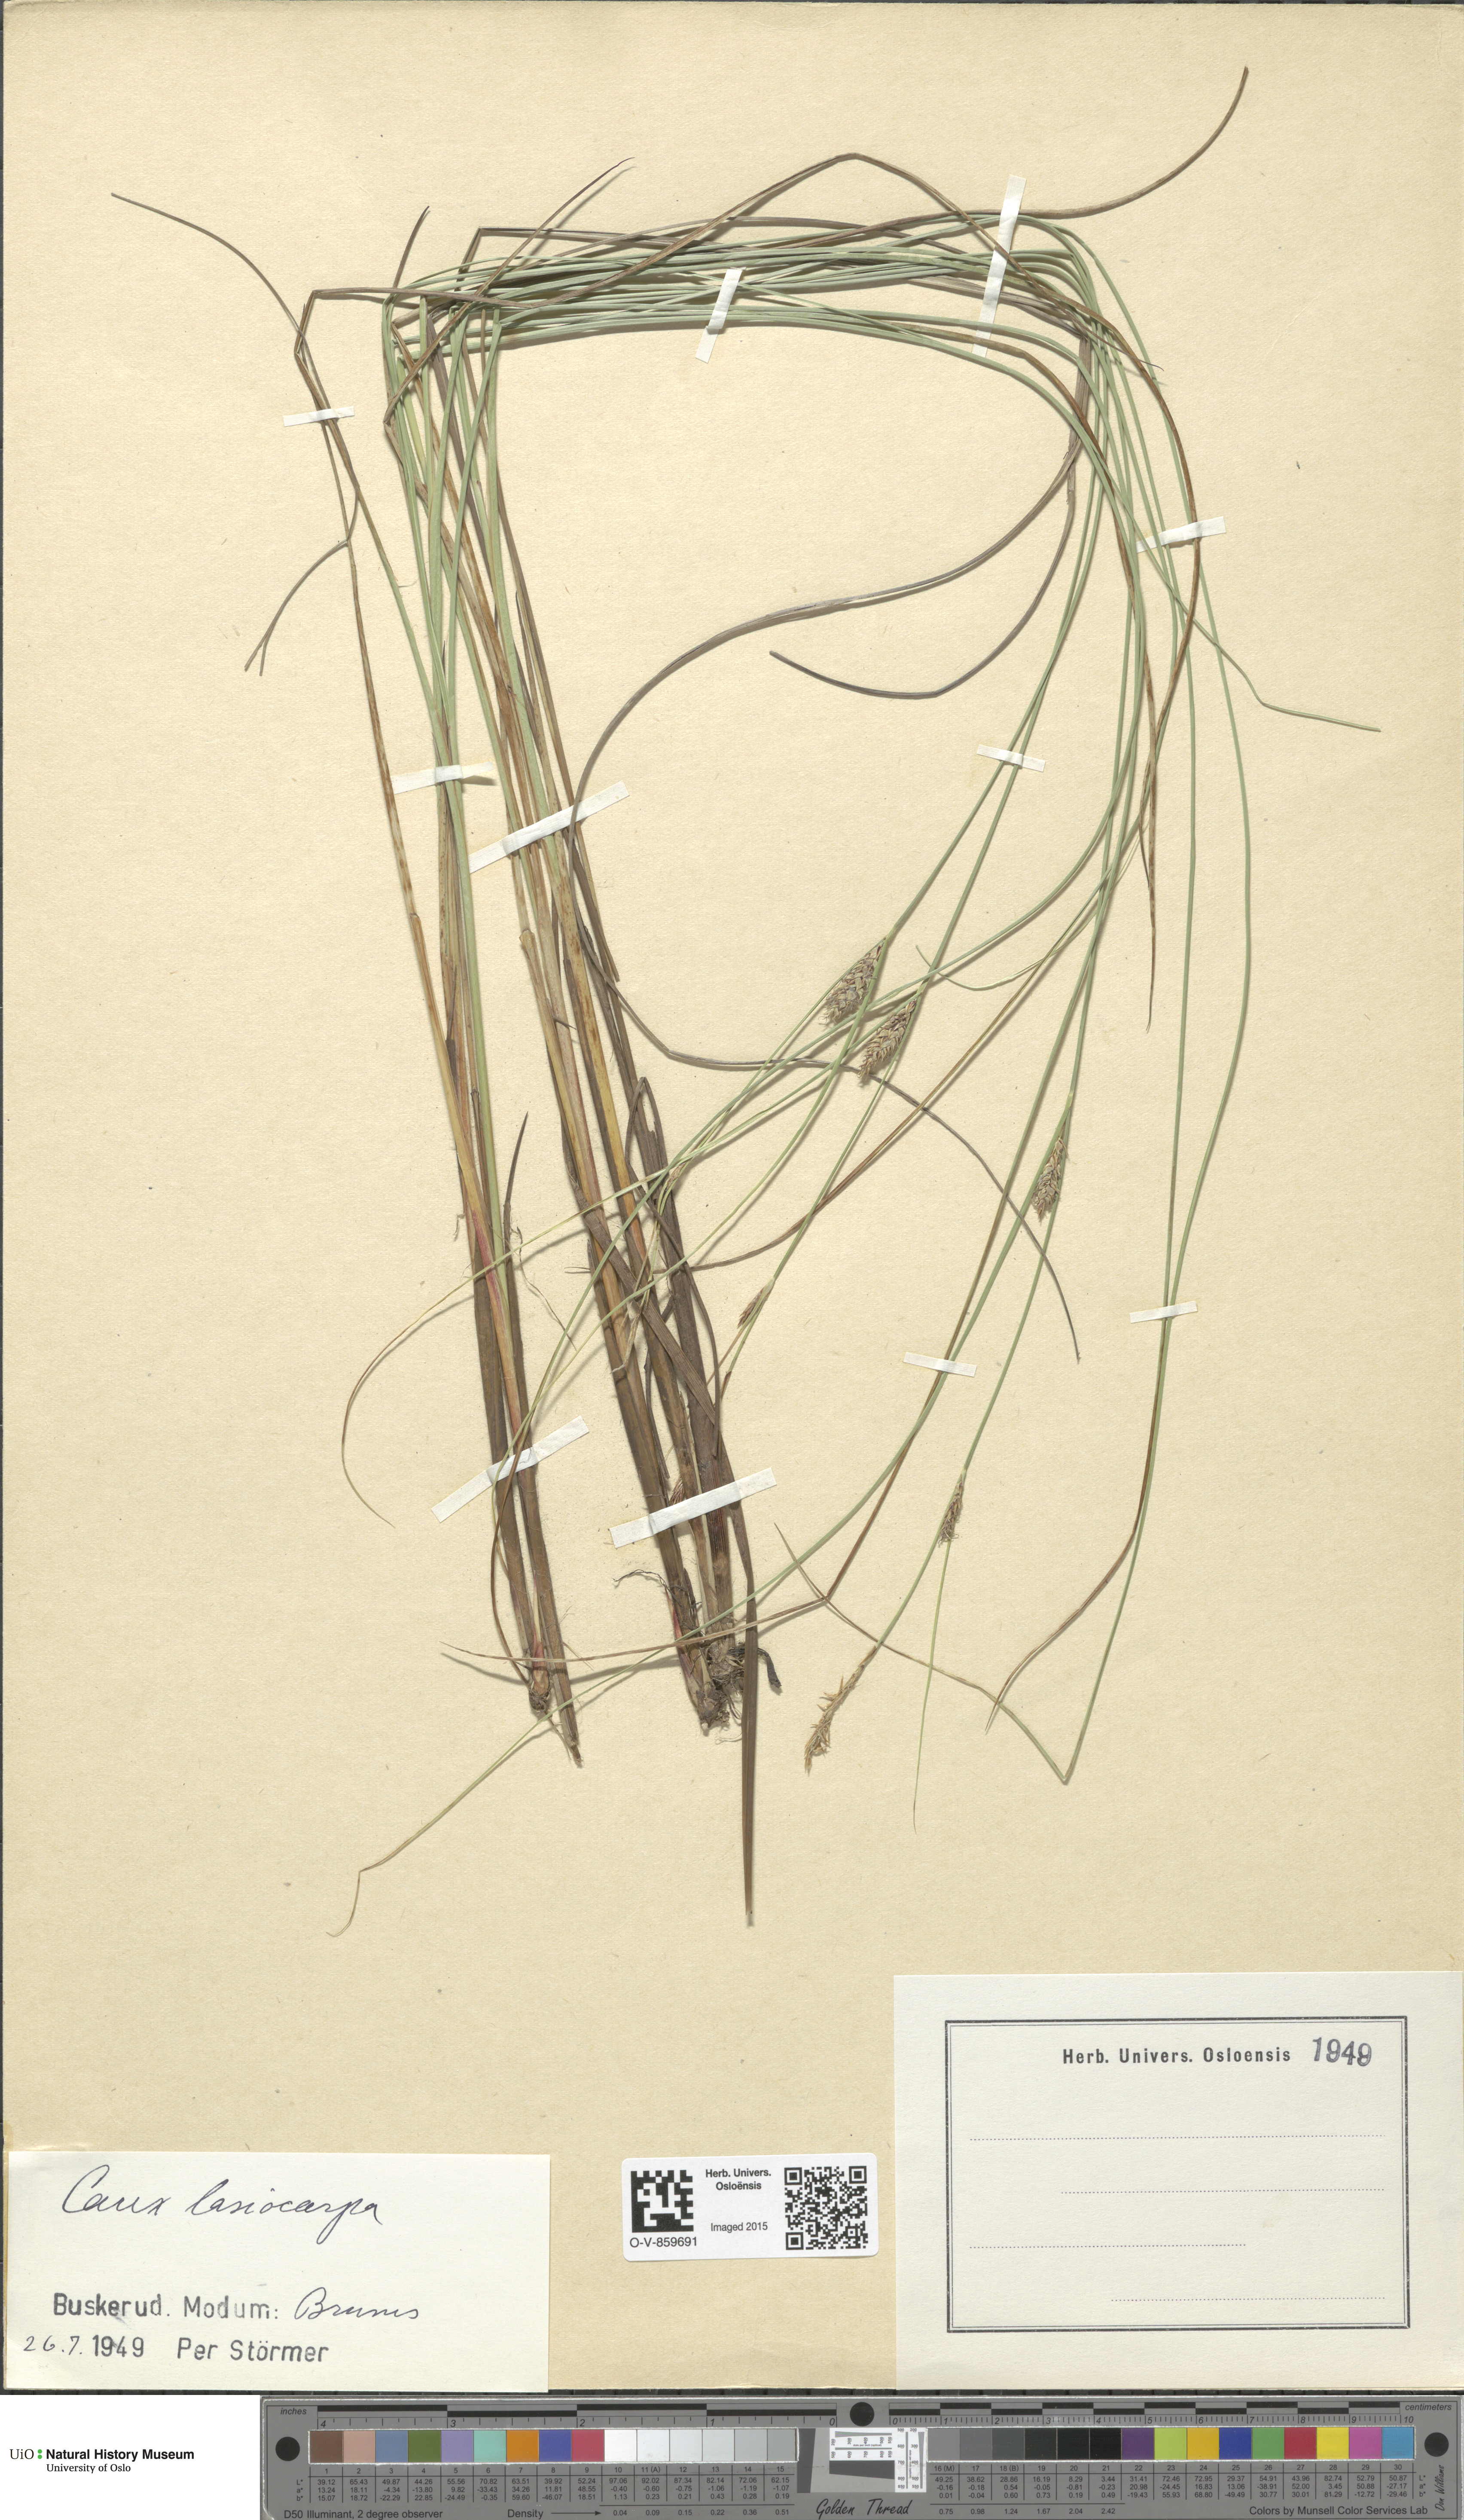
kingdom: Plantae
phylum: Tracheophyta
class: Liliopsida
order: Poales
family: Cyperaceae
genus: Carex
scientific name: Carex lasiocarpa
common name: Slender sedge
